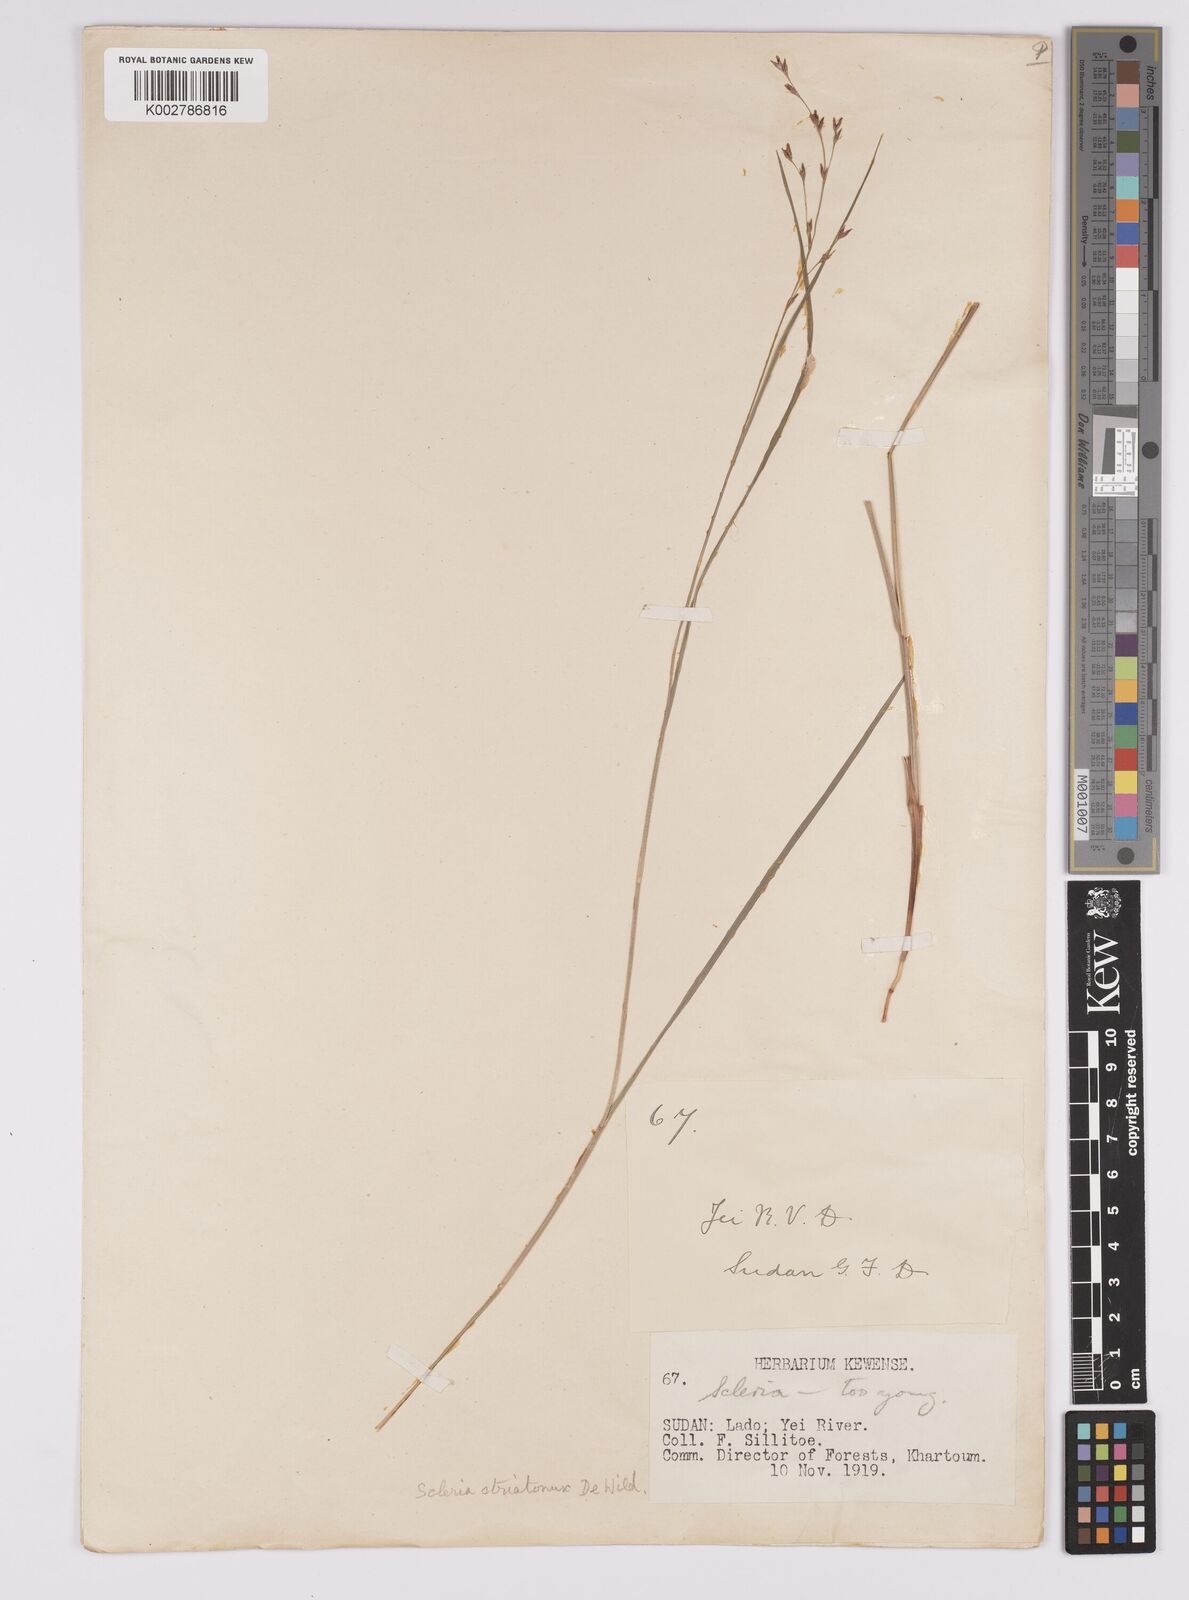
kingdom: Plantae
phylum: Tracheophyta
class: Liliopsida
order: Poales
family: Cyperaceae
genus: Scleria
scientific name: Scleria woodii
